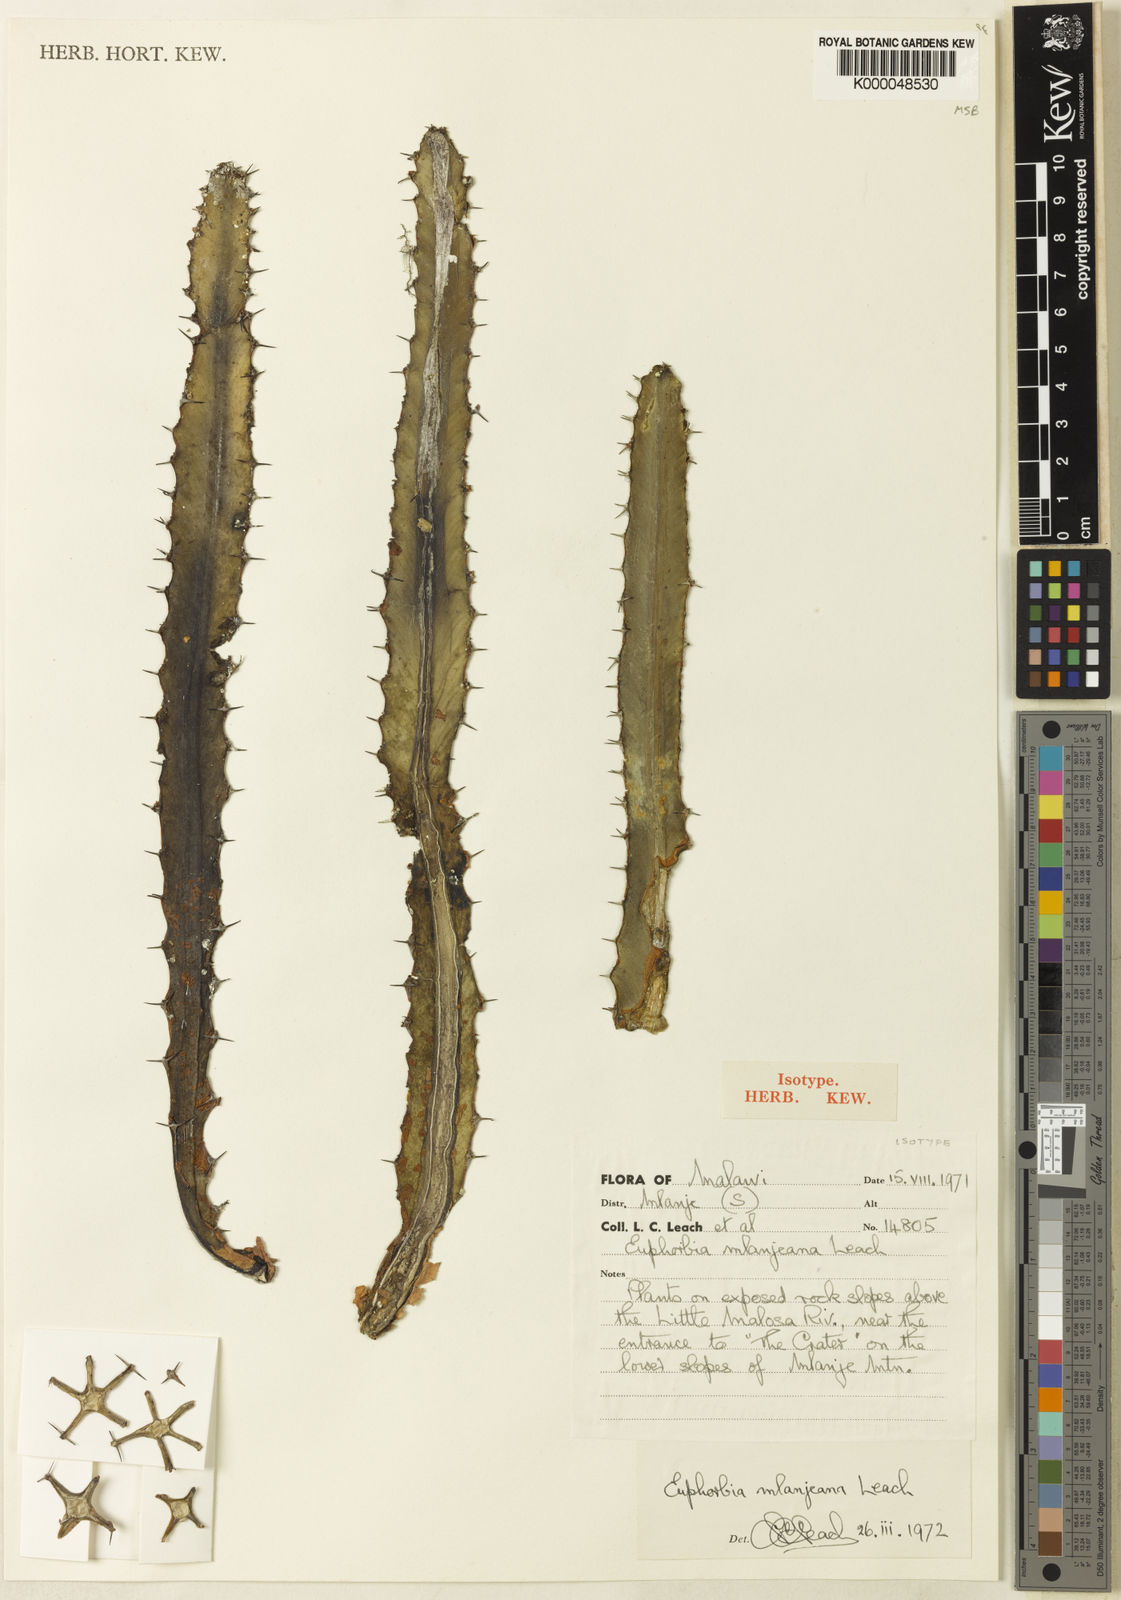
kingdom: Plantae
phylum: Tracheophyta
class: Magnoliopsida
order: Malpighiales
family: Euphorbiaceae
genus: Euphorbia
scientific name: Euphorbia mlanjeana
